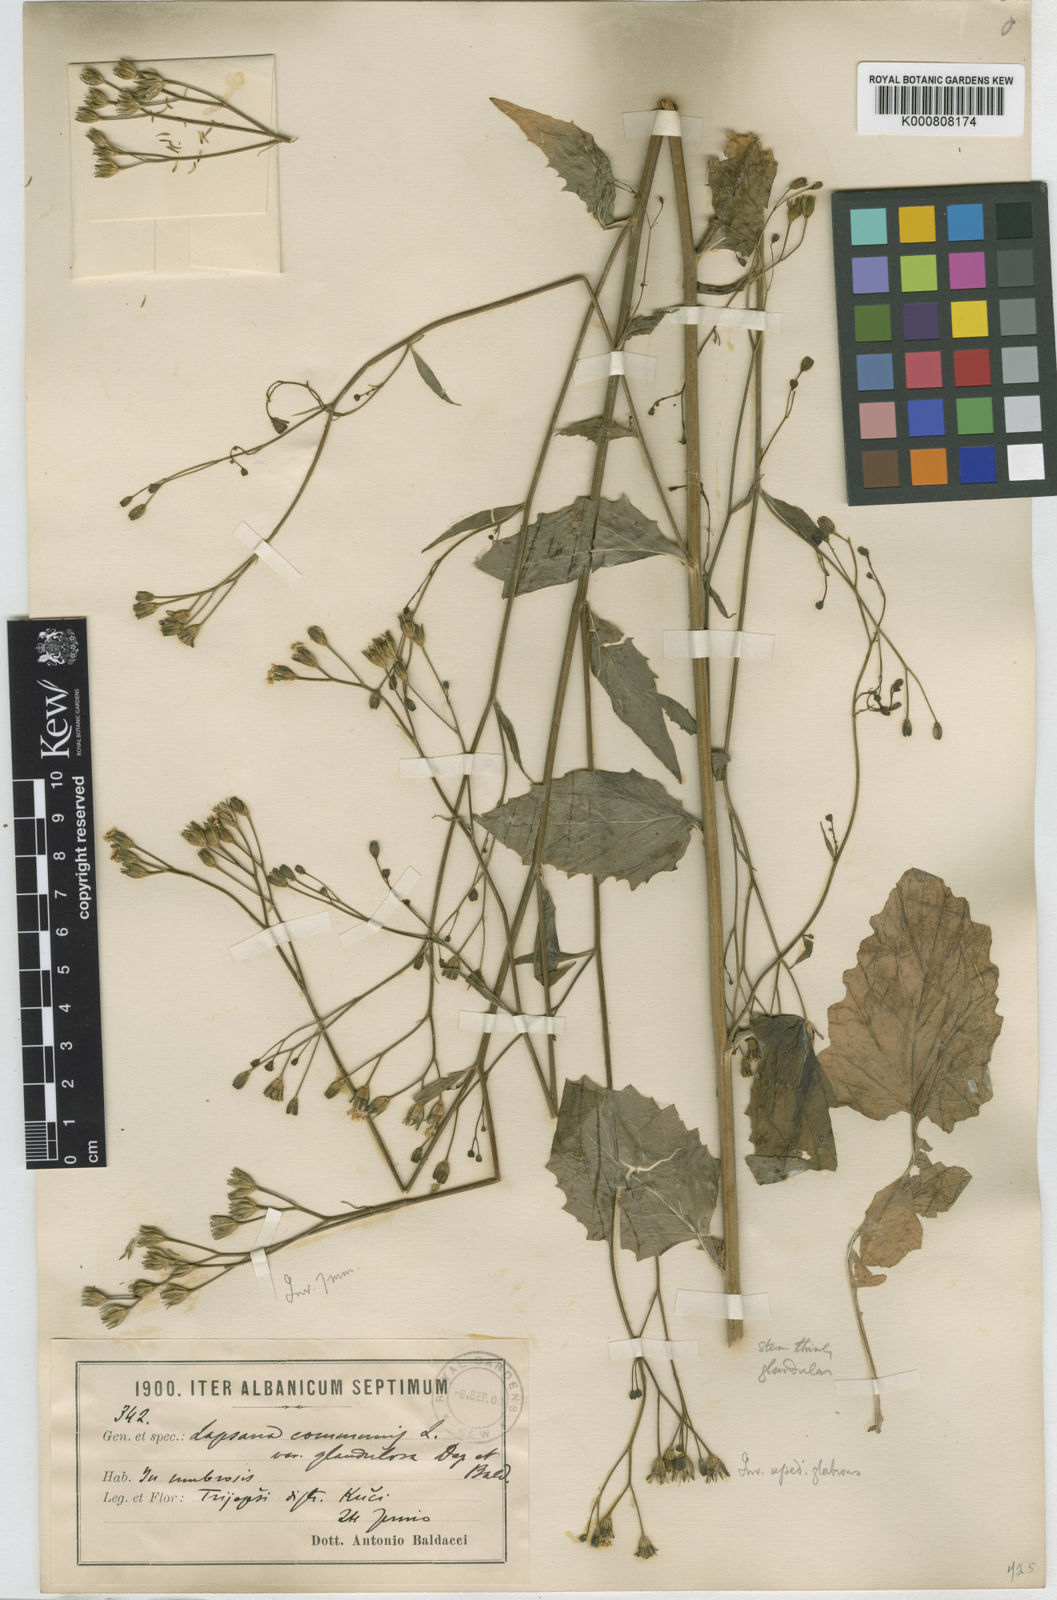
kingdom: Plantae
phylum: Tracheophyta
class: Magnoliopsida
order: Asterales
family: Asteraceae
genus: Lapsana
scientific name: Lapsana communis
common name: Nipplewort
